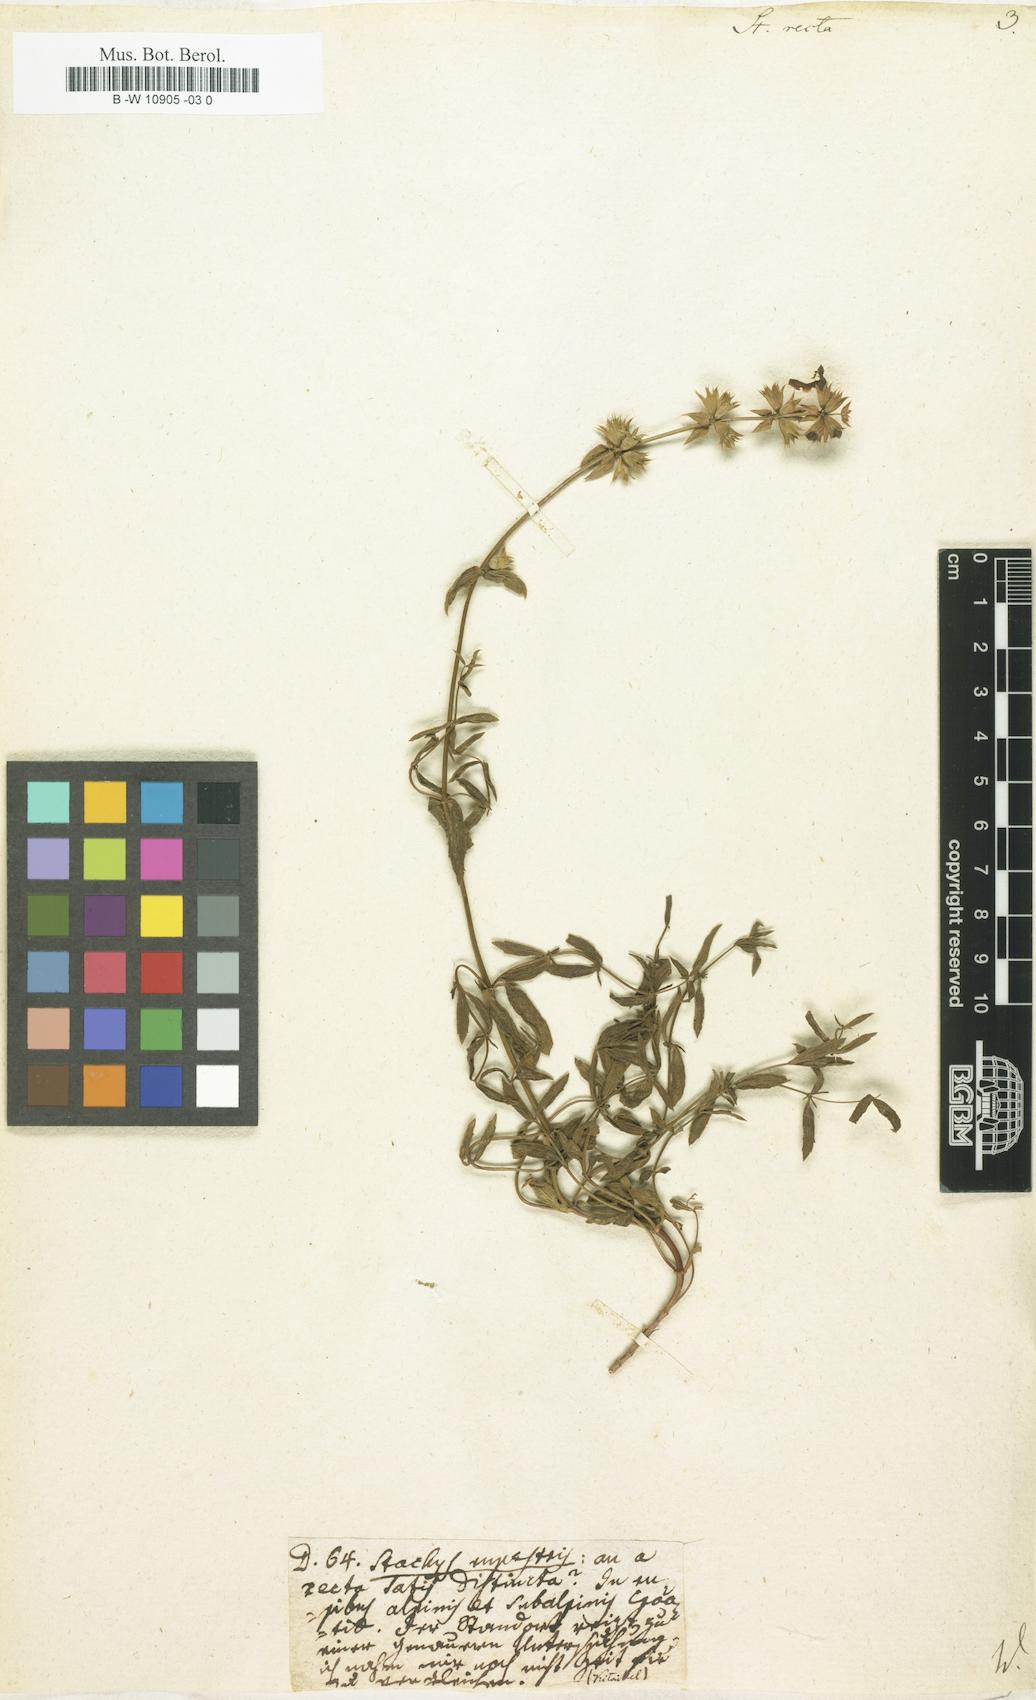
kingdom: Plantae
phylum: Tracheophyta
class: Magnoliopsida
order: Lamiales
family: Lamiaceae
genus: Stachys
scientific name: Stachys recta
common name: Perennial yellow-woundwort
